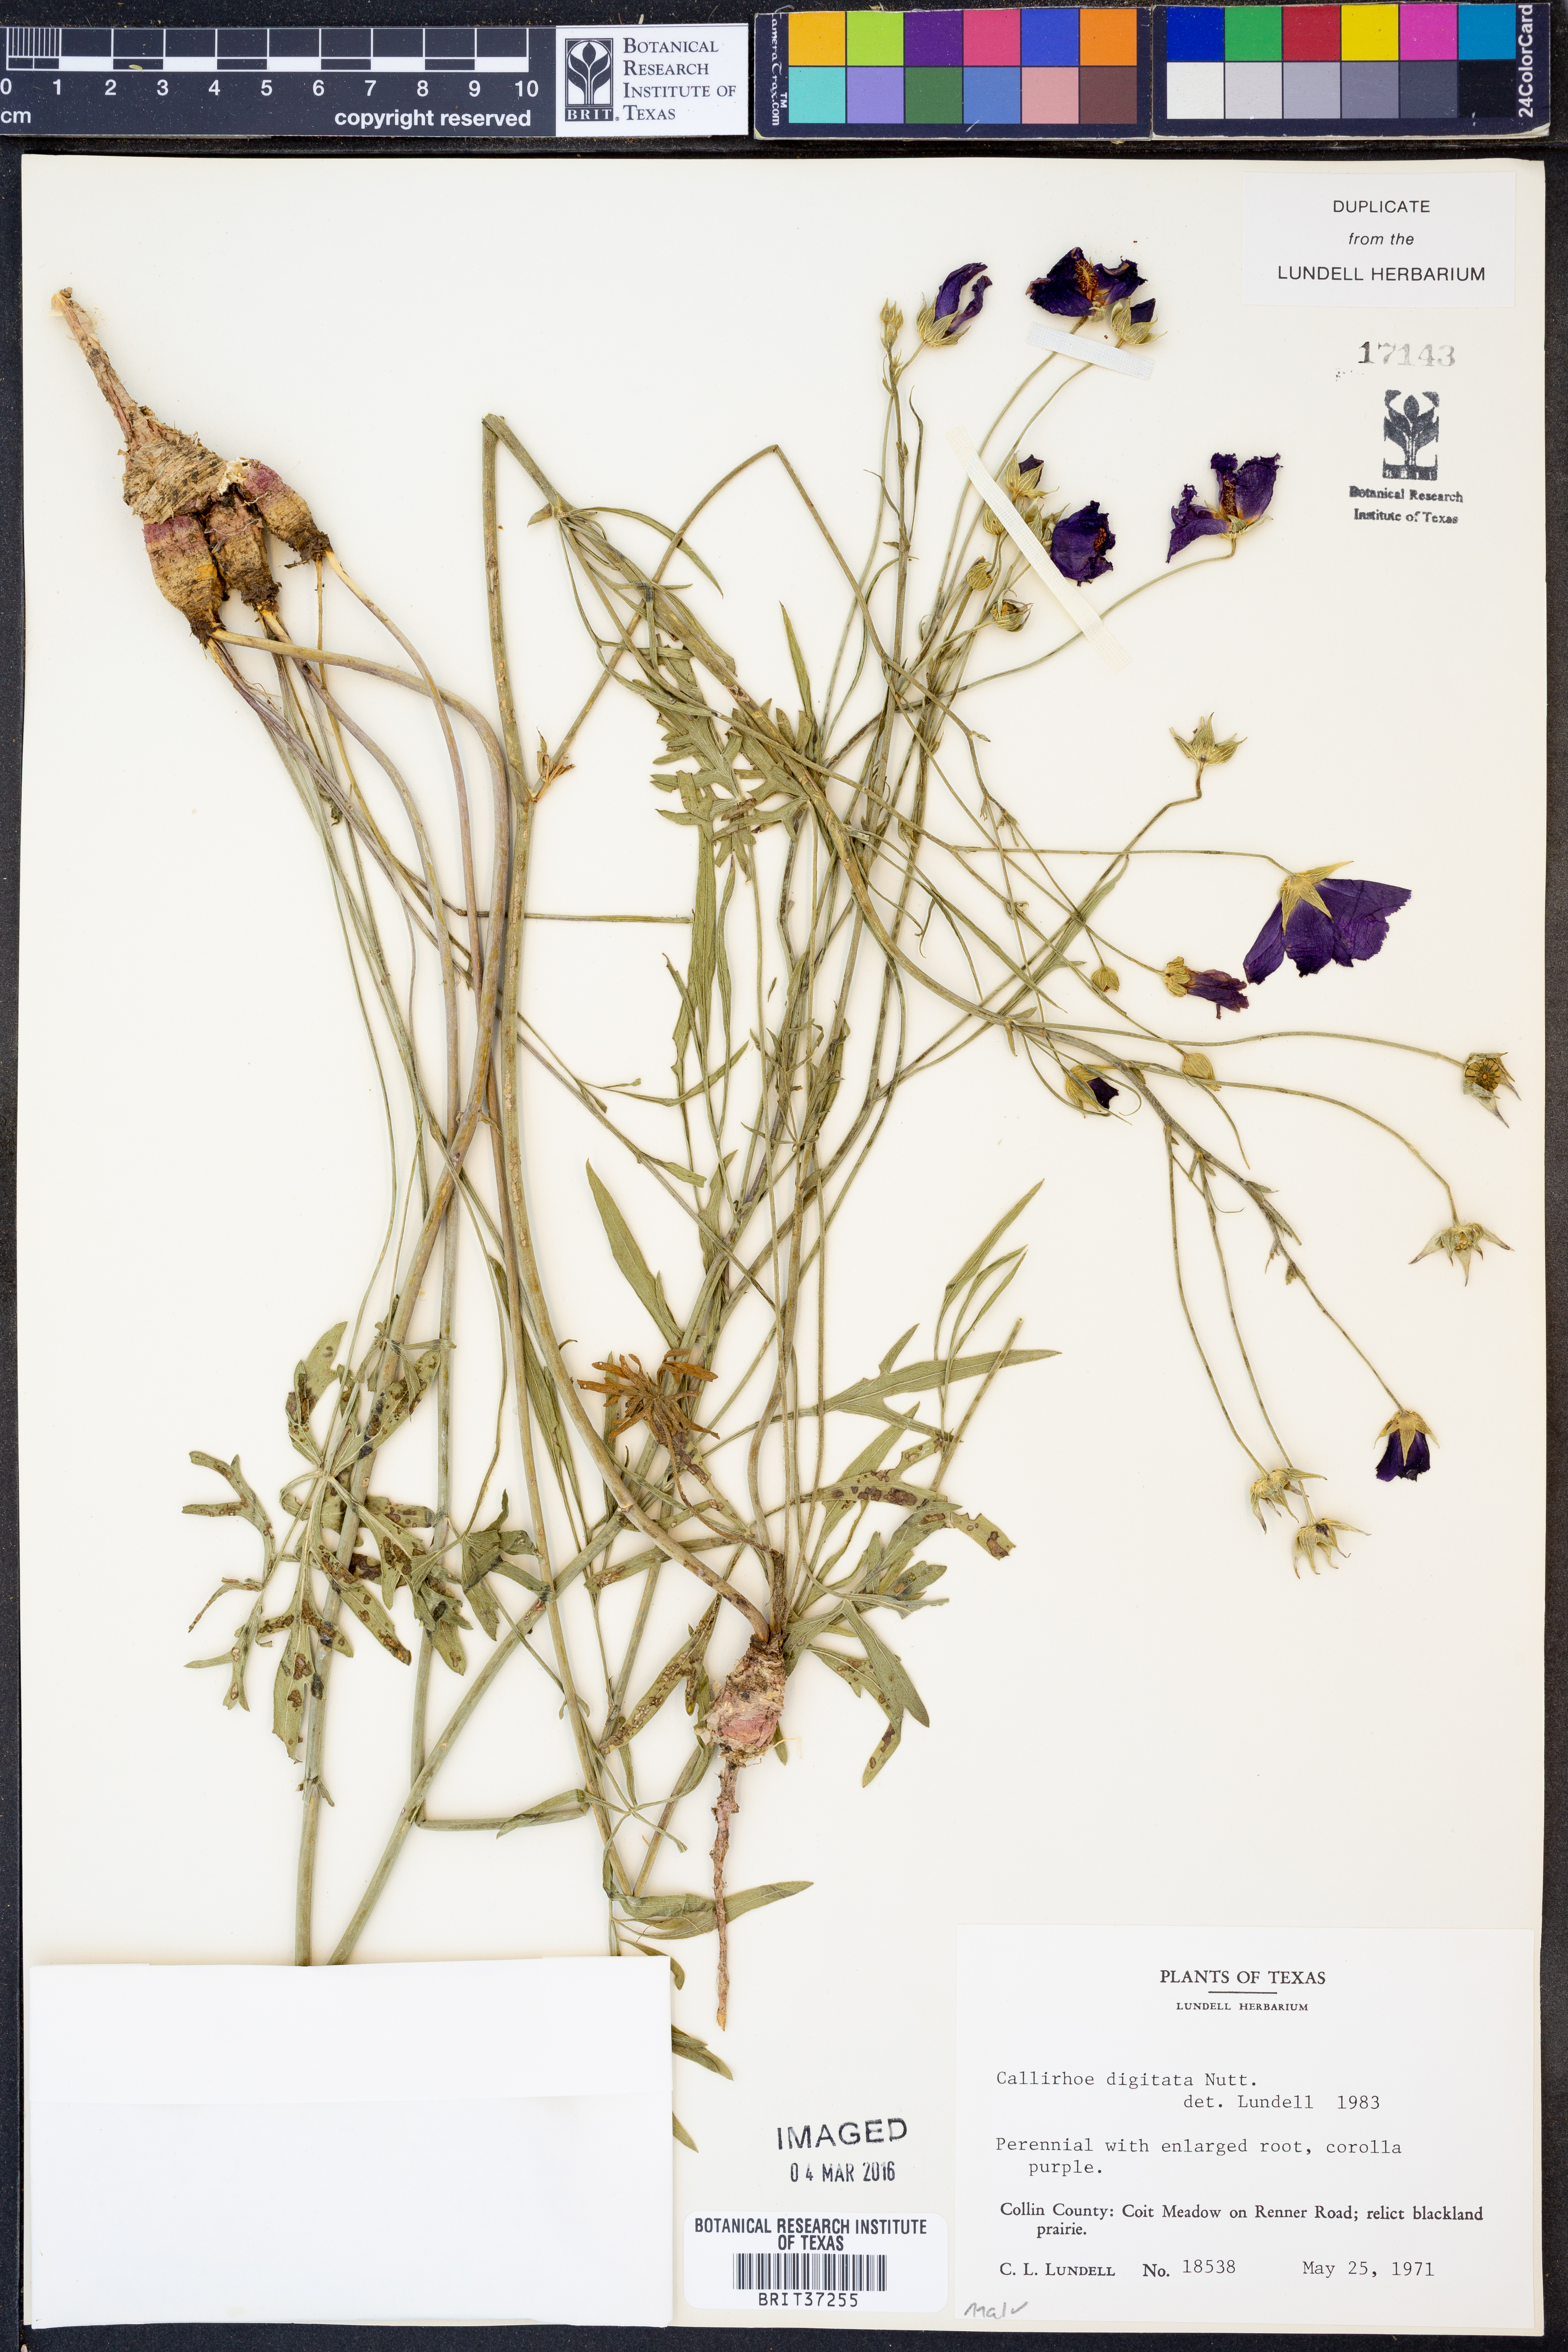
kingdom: Plantae
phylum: Tracheophyta
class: Magnoliopsida
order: Malvales
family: Malvaceae
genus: Callirhoe
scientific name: Callirhoe digitata
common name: Finger poppy-mallow
